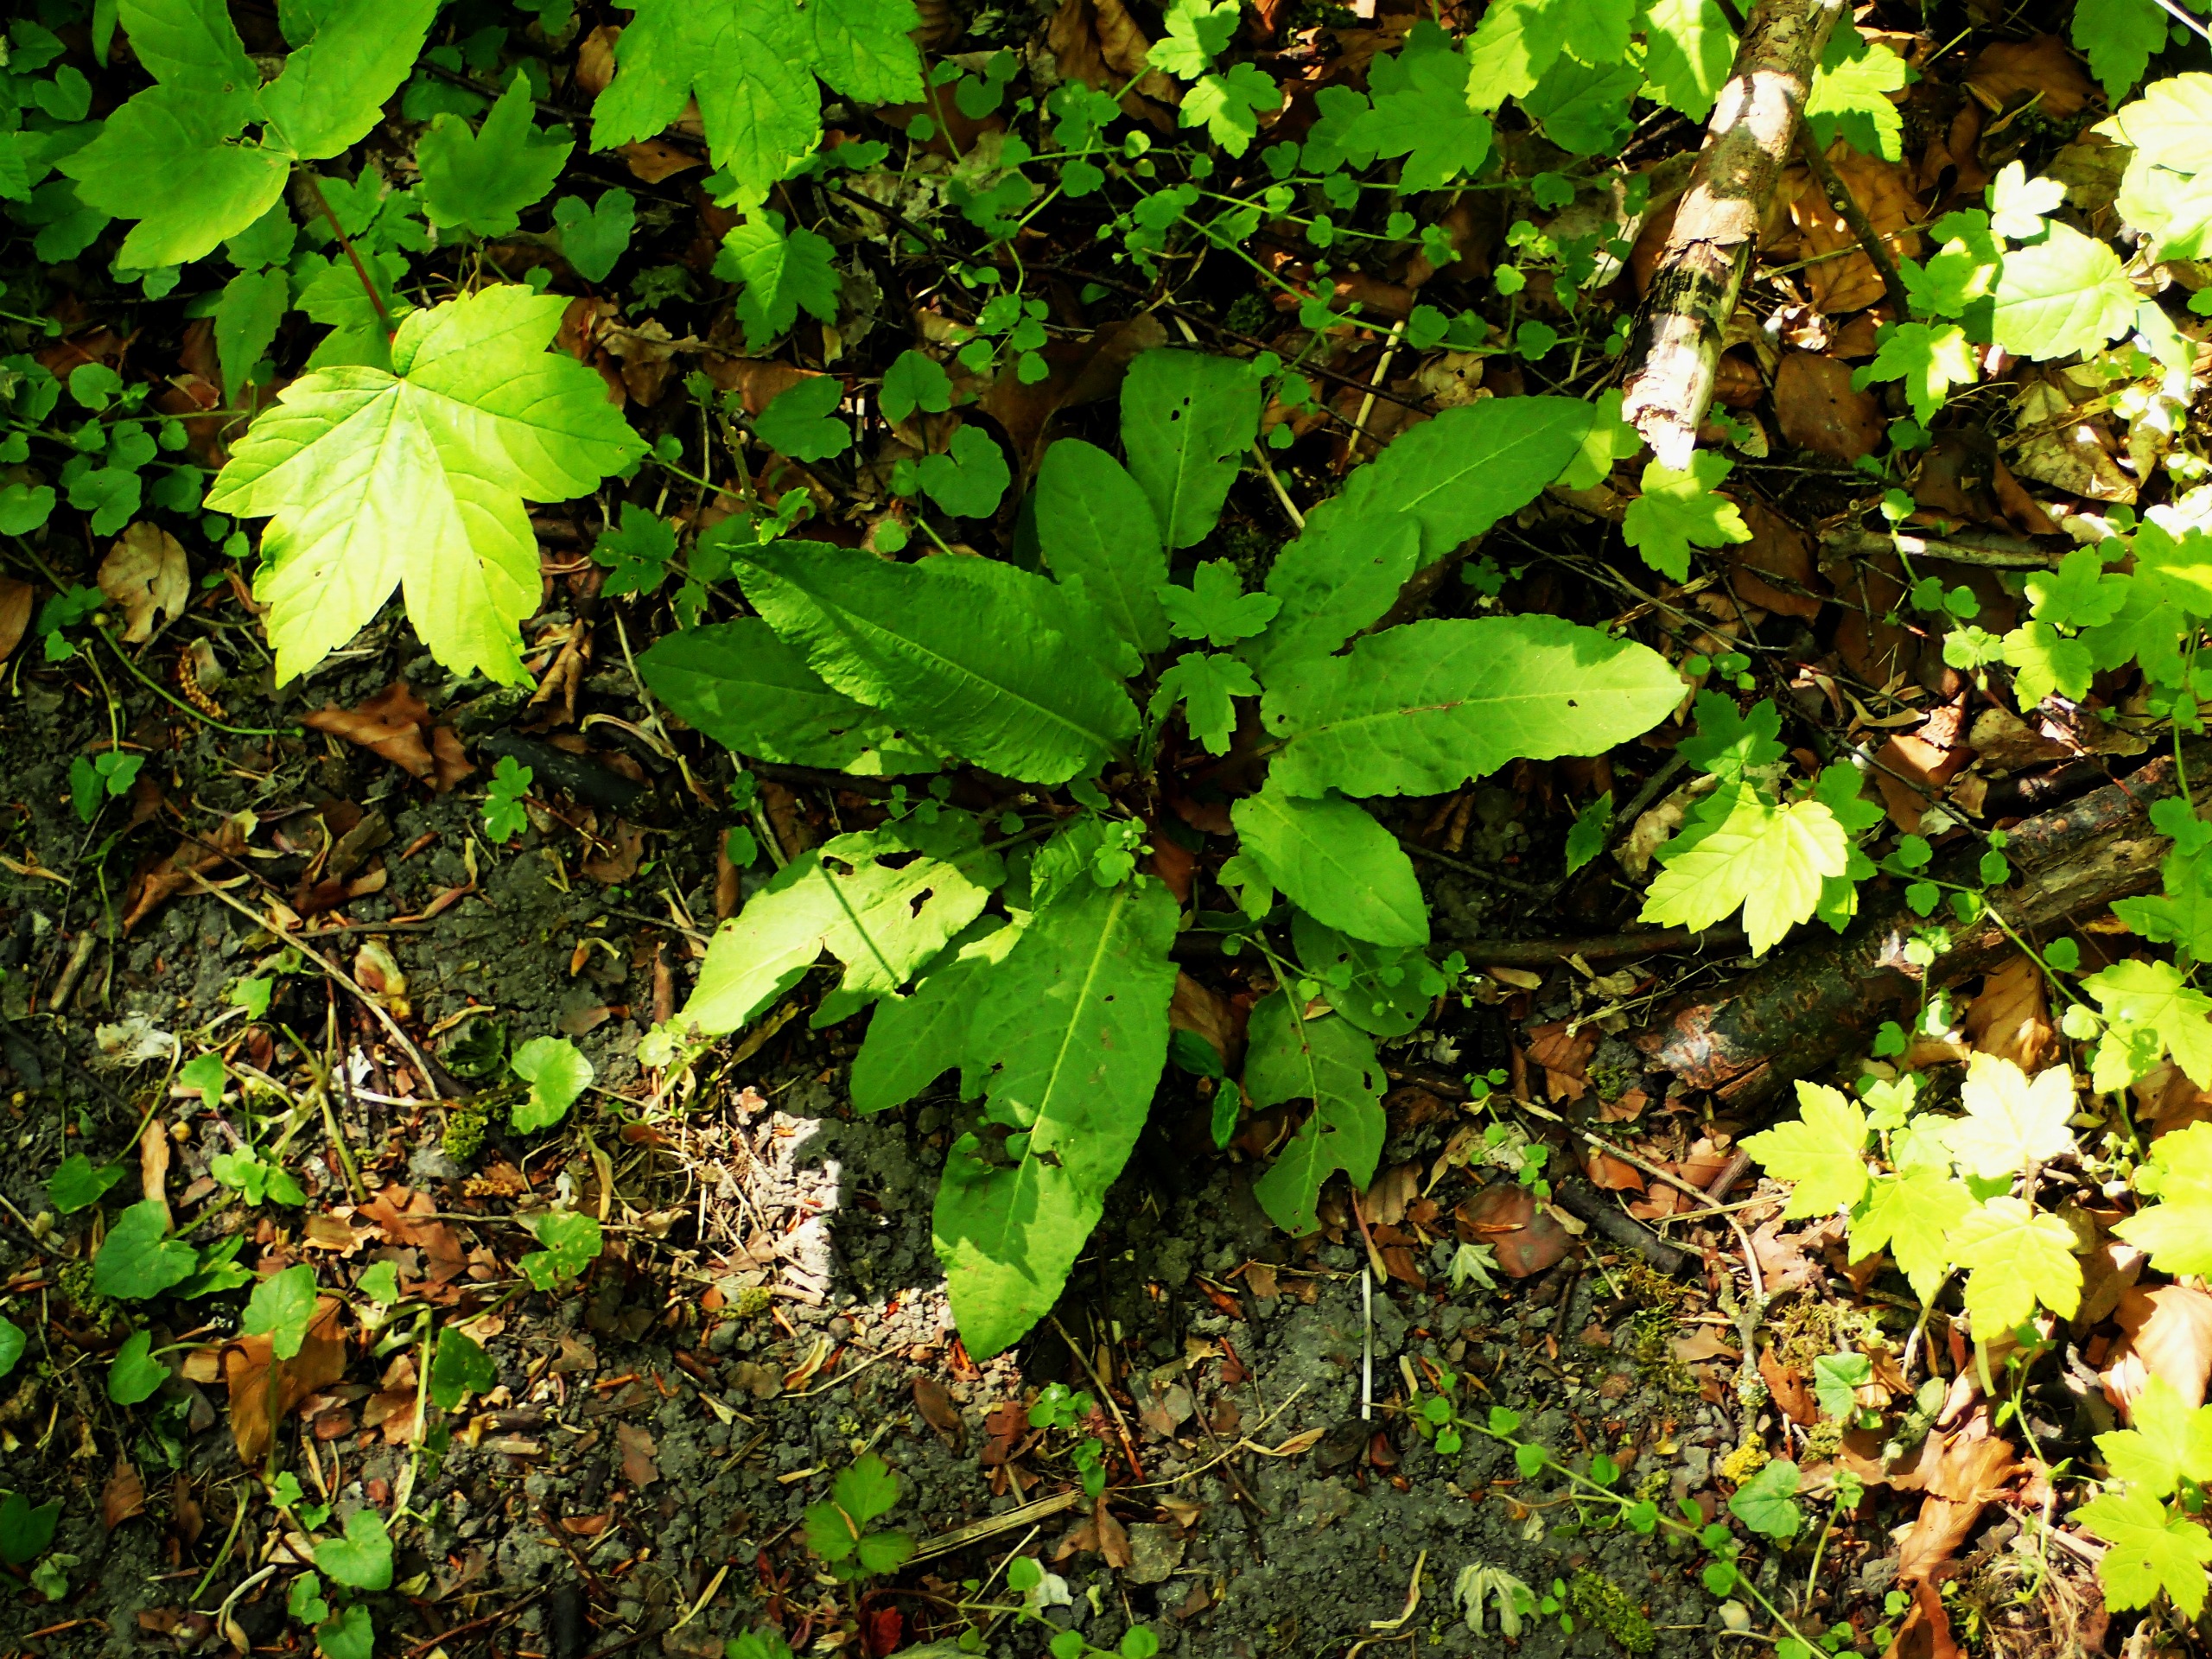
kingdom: Plantae
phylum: Tracheophyta
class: Magnoliopsida
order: Caryophyllales
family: Polygonaceae
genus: Rumex
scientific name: Rumex sanguineus
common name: Skov-skræppe
